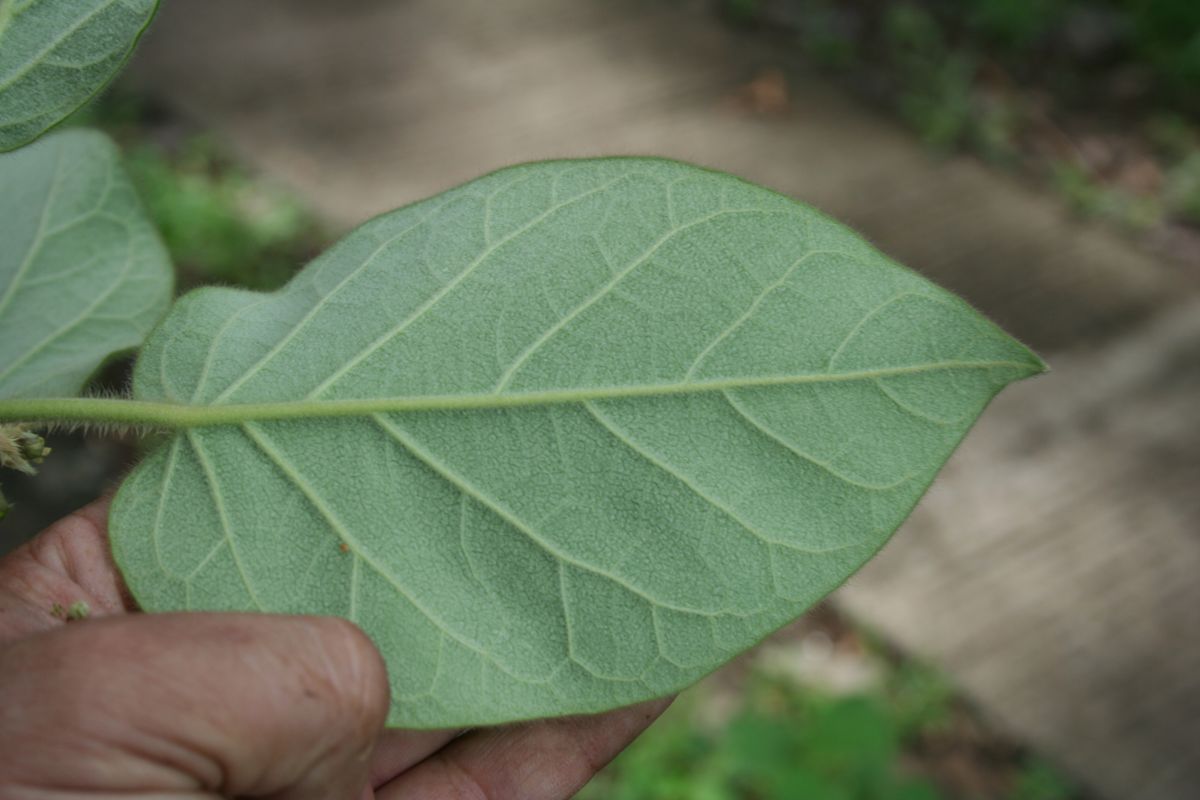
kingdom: Plantae
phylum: Tracheophyta
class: Magnoliopsida
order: Gentianales
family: Apocynaceae
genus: Ruehssia
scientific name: Ruehssia lanata
